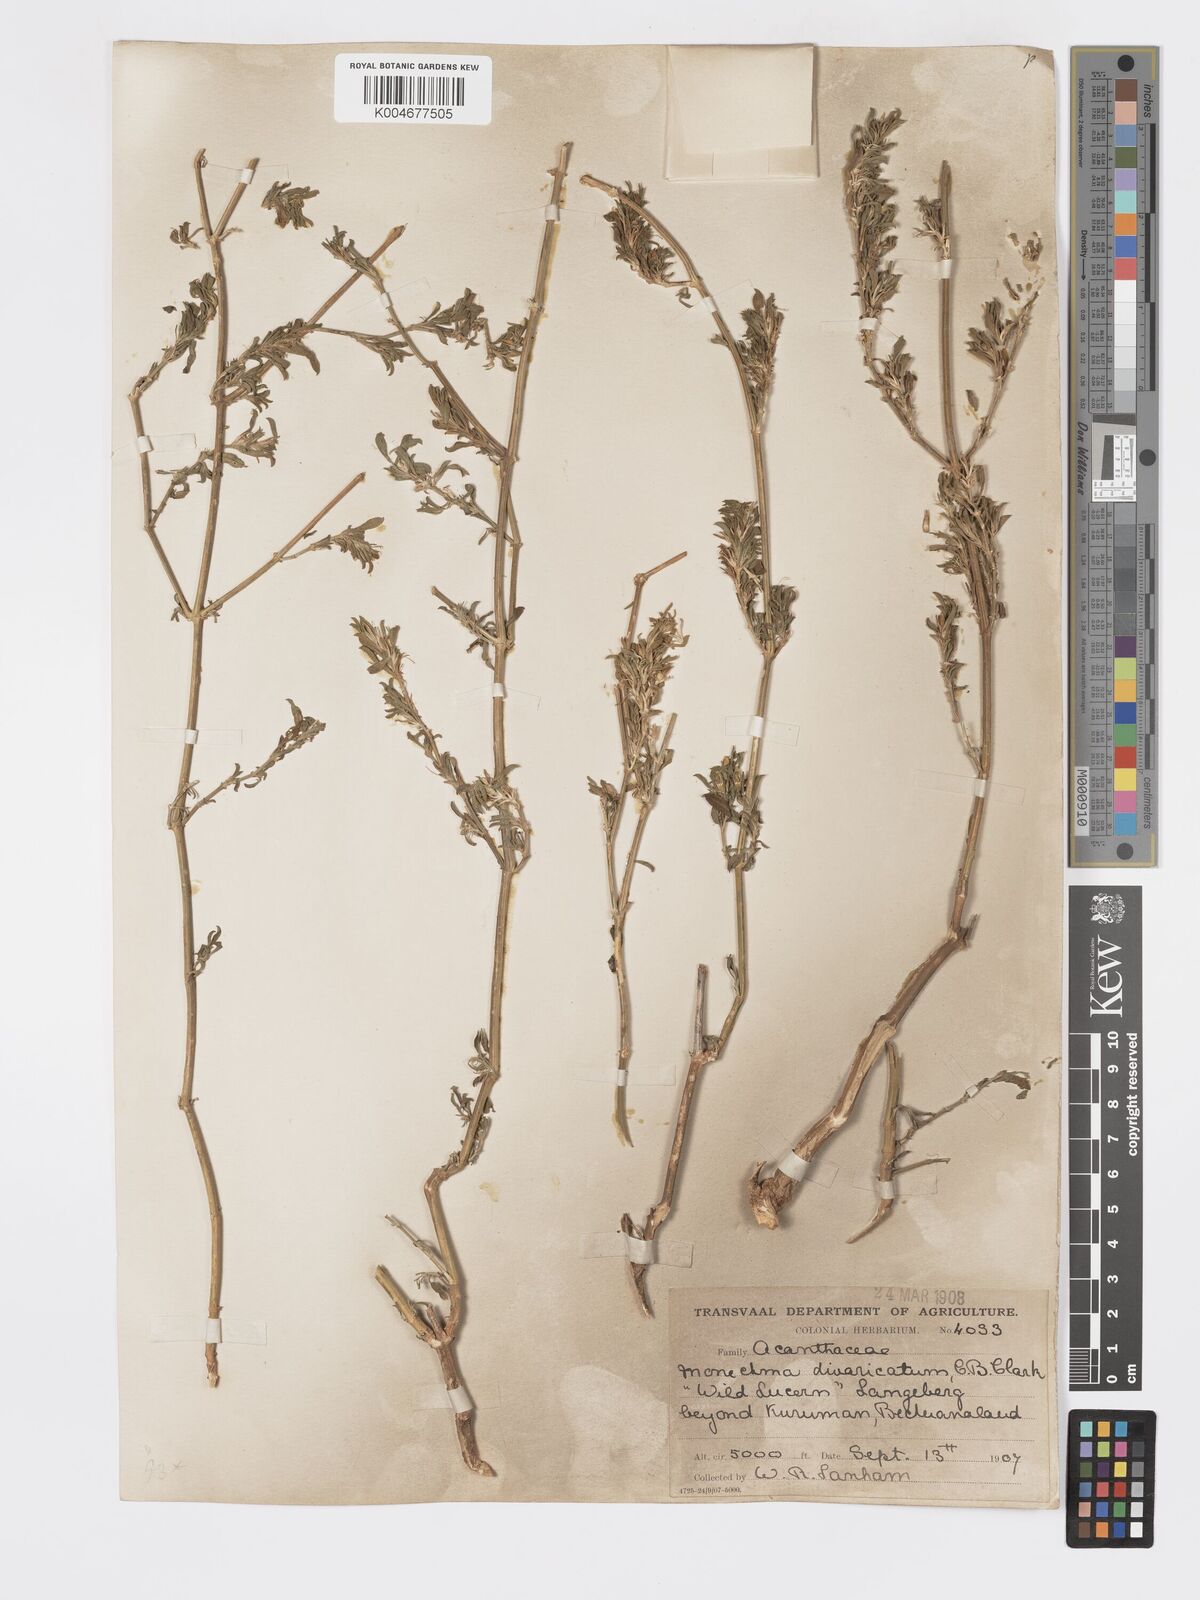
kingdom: Plantae
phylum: Tracheophyta
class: Magnoliopsida
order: Lamiales
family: Acanthaceae
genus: Pogonospermum
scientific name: Pogonospermum
